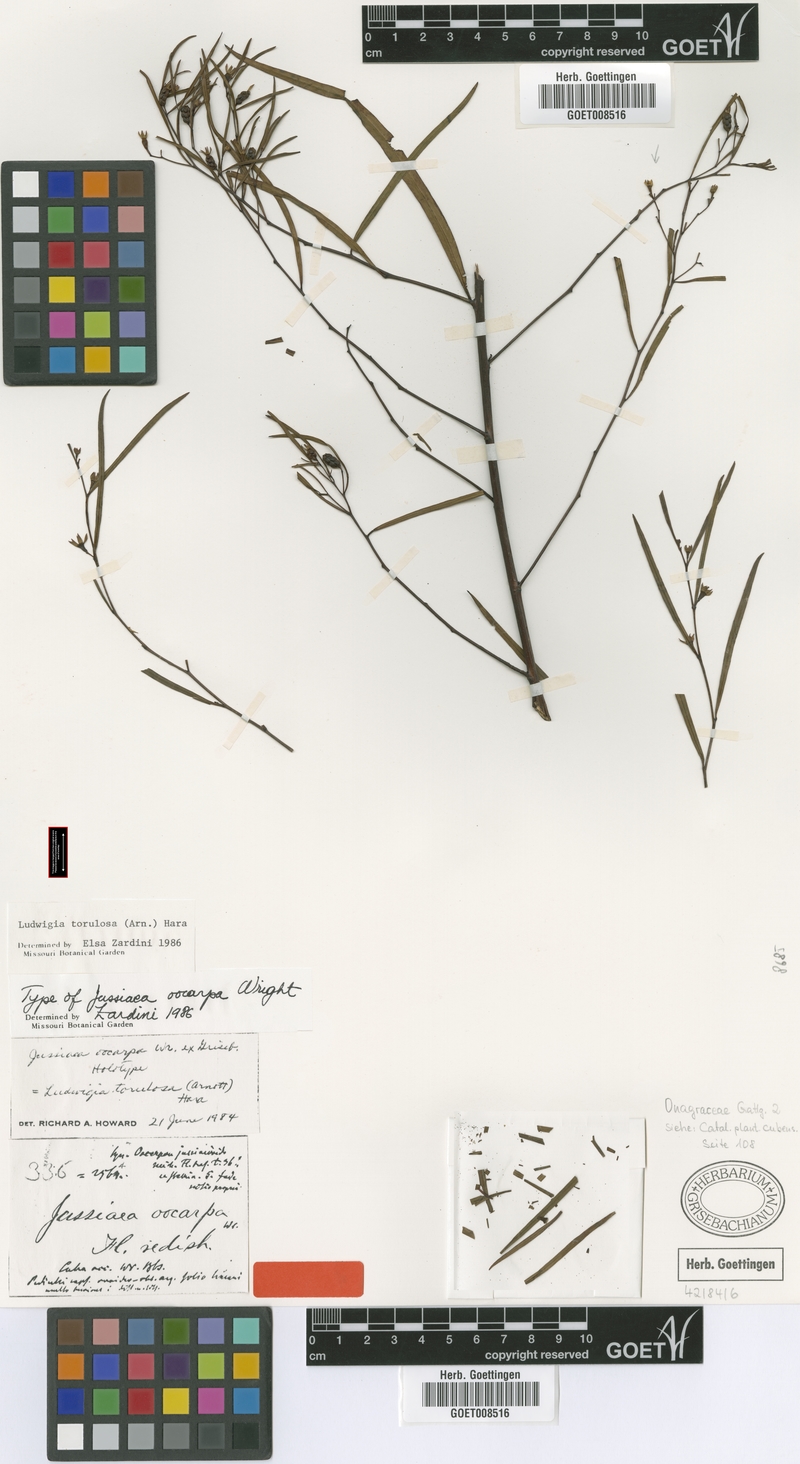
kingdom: Plantae
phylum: Tracheophyta
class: Magnoliopsida
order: Myrtales
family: Onagraceae
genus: Ludwigia
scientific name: Ludwigia torulosa
